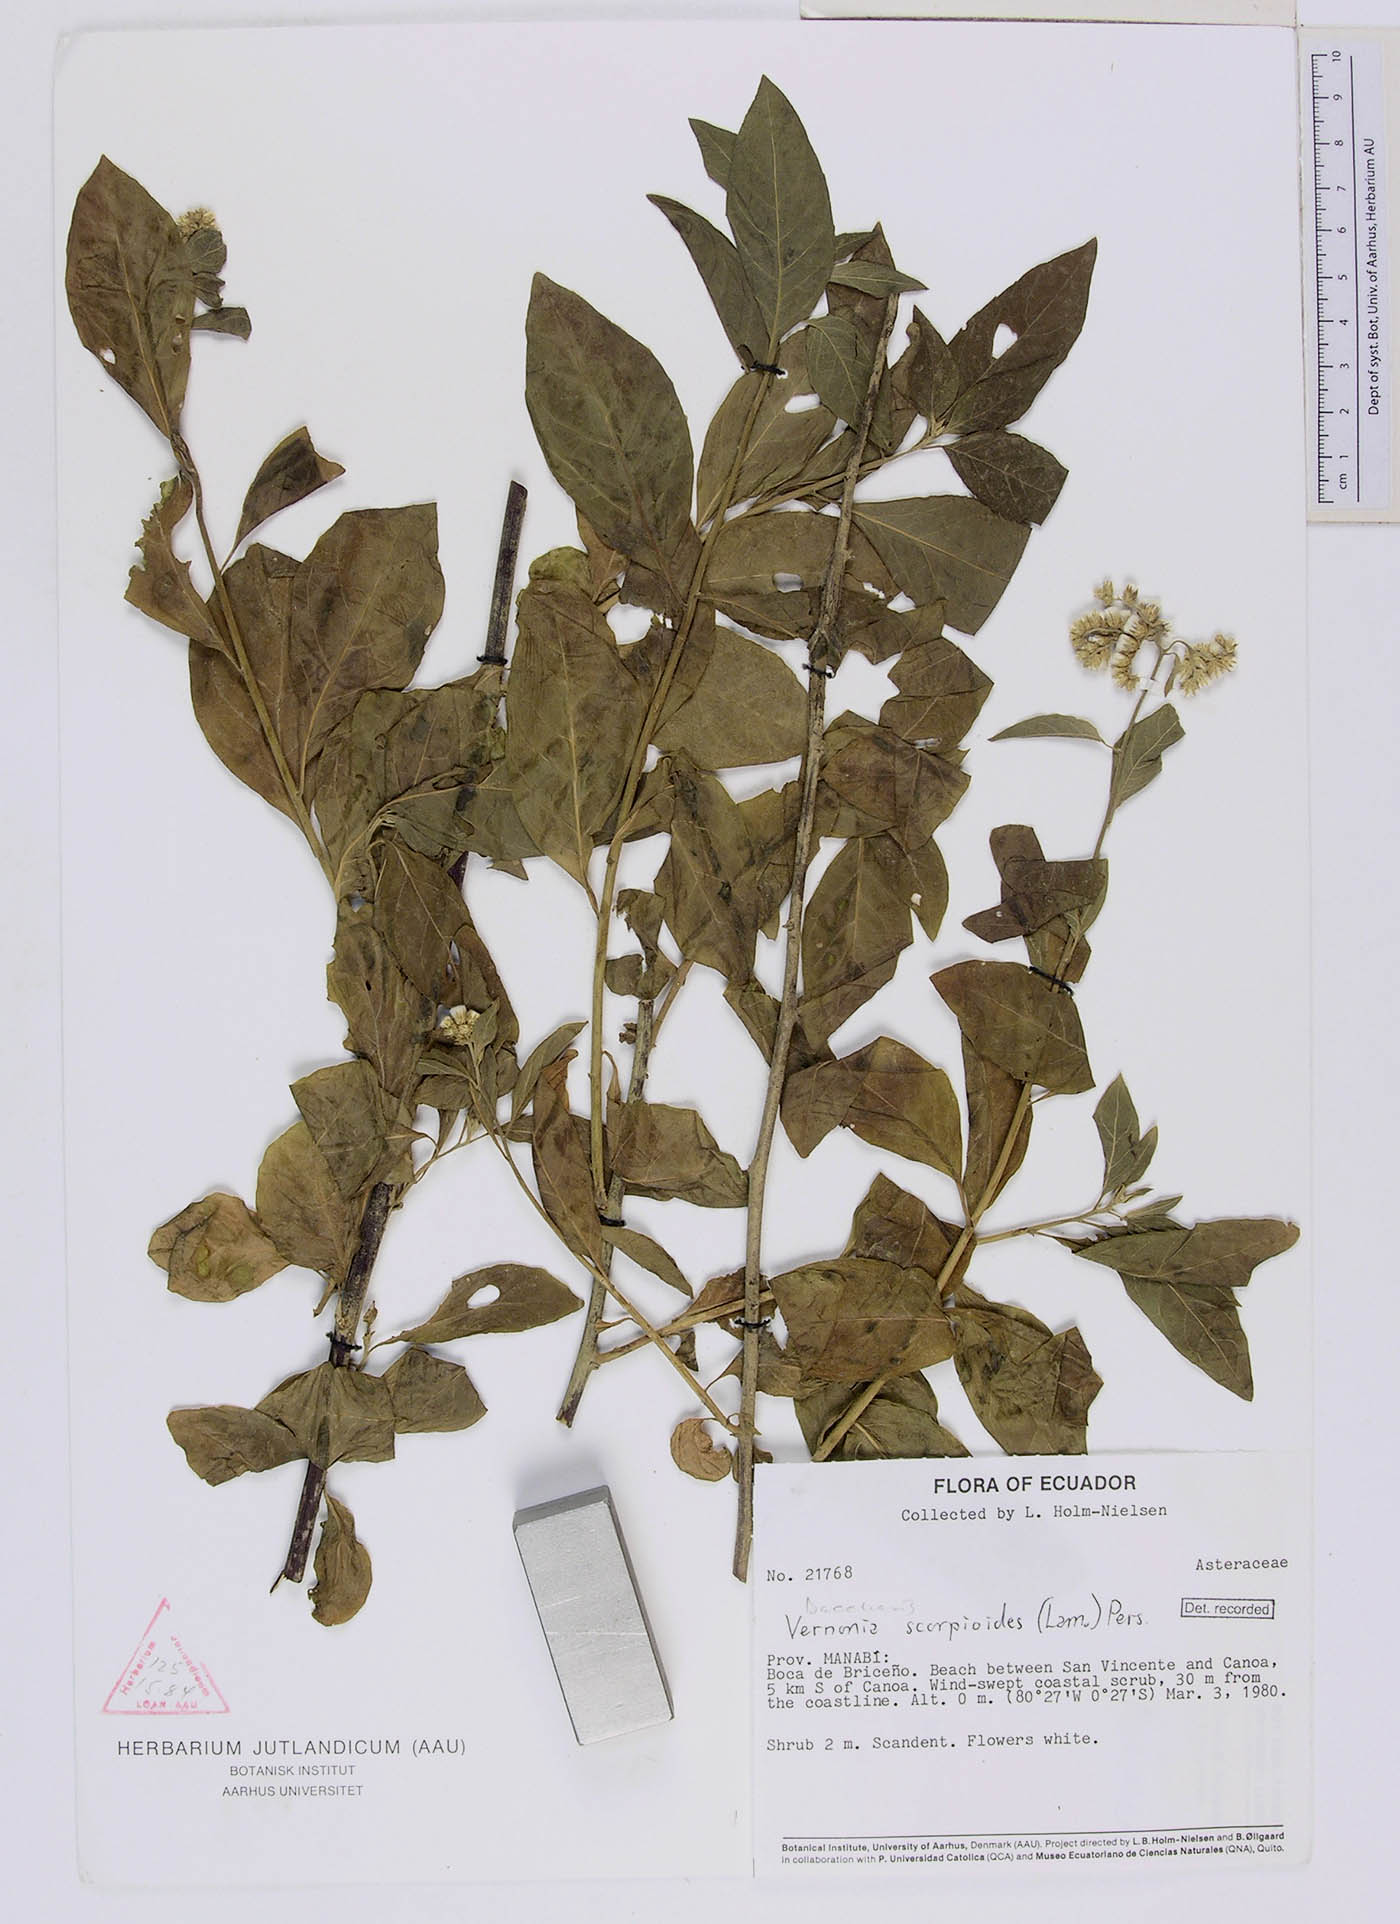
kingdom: Plantae
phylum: Tracheophyta
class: Magnoliopsida
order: Asterales
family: Asteraceae
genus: Cyrtocymura
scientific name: Cyrtocymura scorpioides
